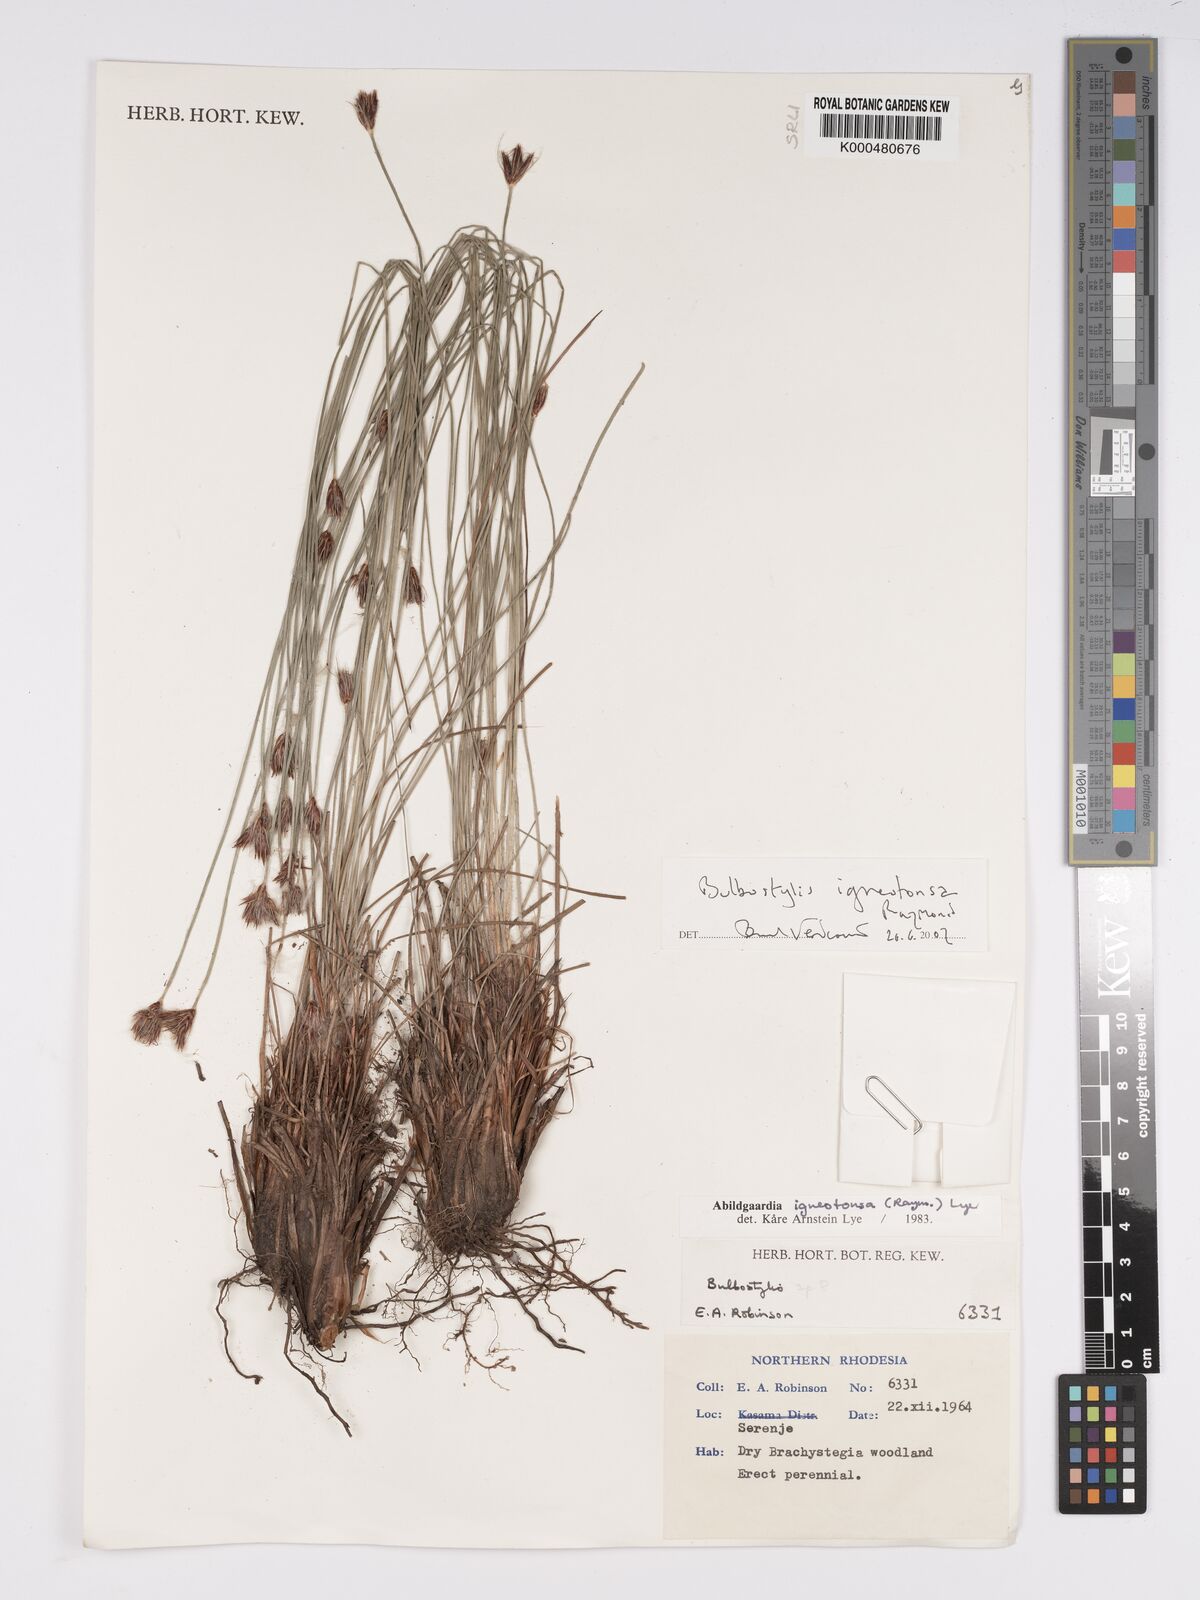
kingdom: Plantae
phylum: Tracheophyta
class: Liliopsida
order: Poales
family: Cyperaceae
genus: Bulbostylis
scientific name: Bulbostylis igneotonsa
